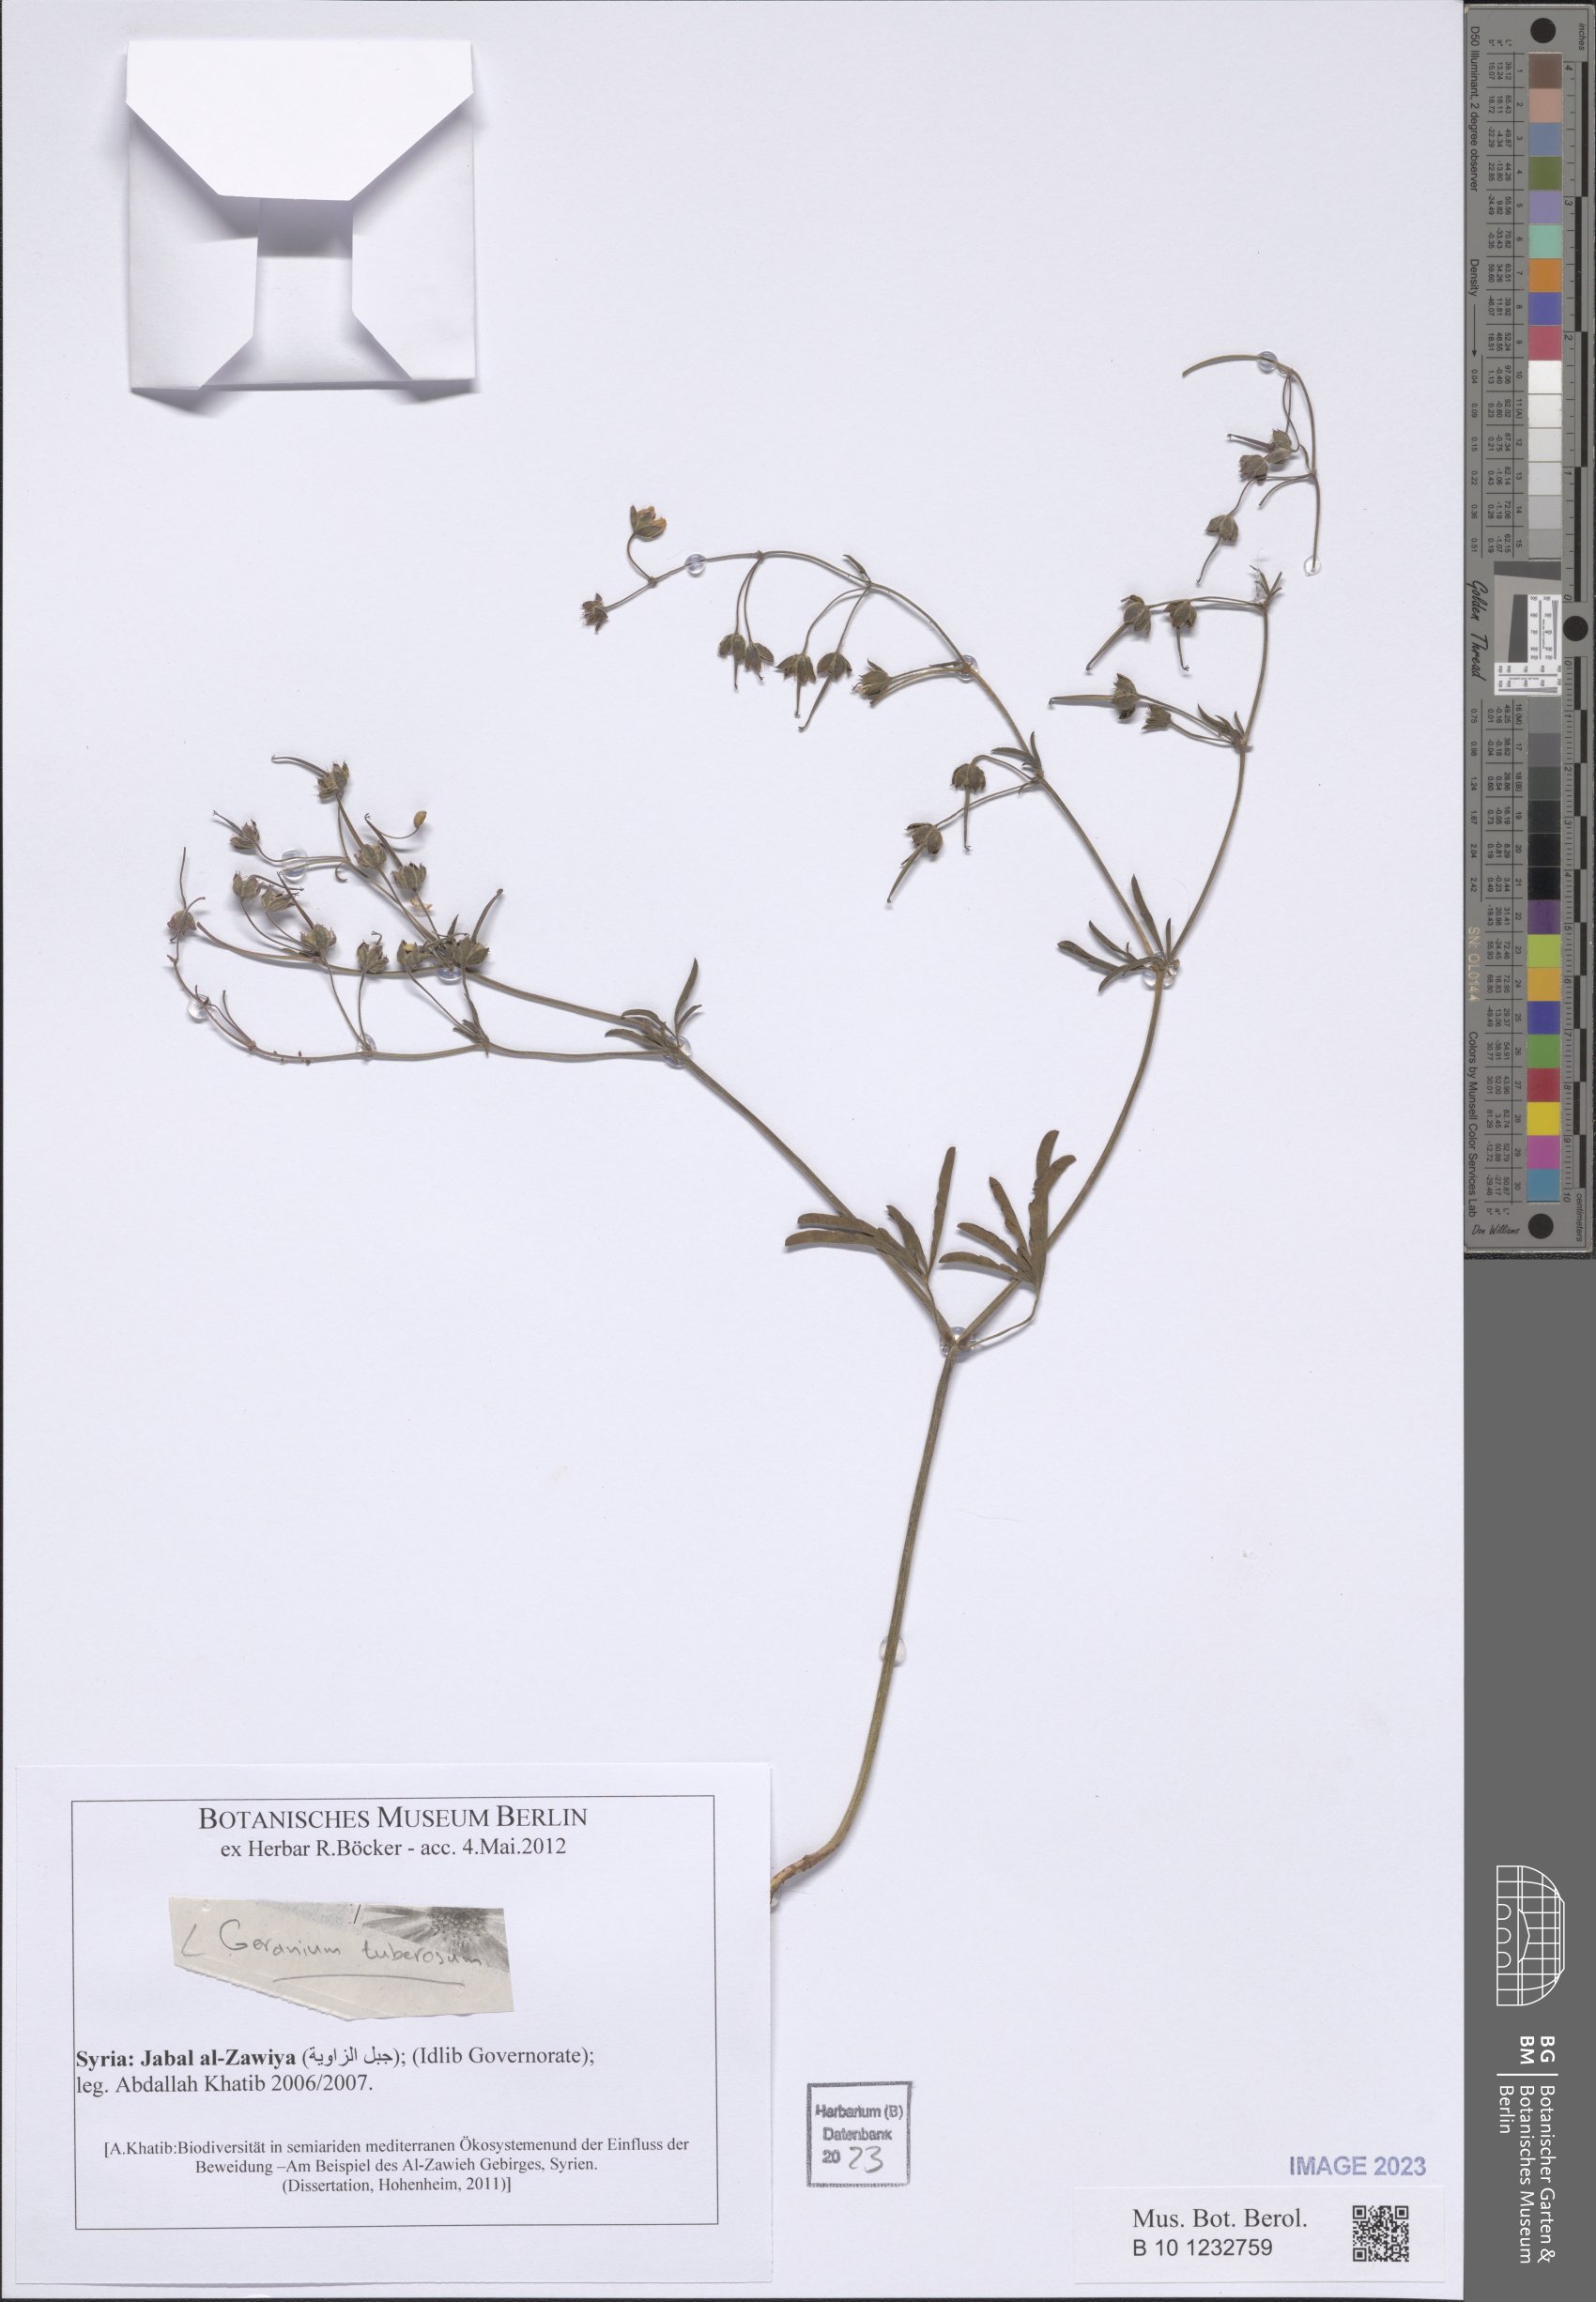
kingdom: Plantae
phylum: Tracheophyta
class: Magnoliopsida
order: Geraniales
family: Geraniaceae
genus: Geranium
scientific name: Geranium tuberosum
